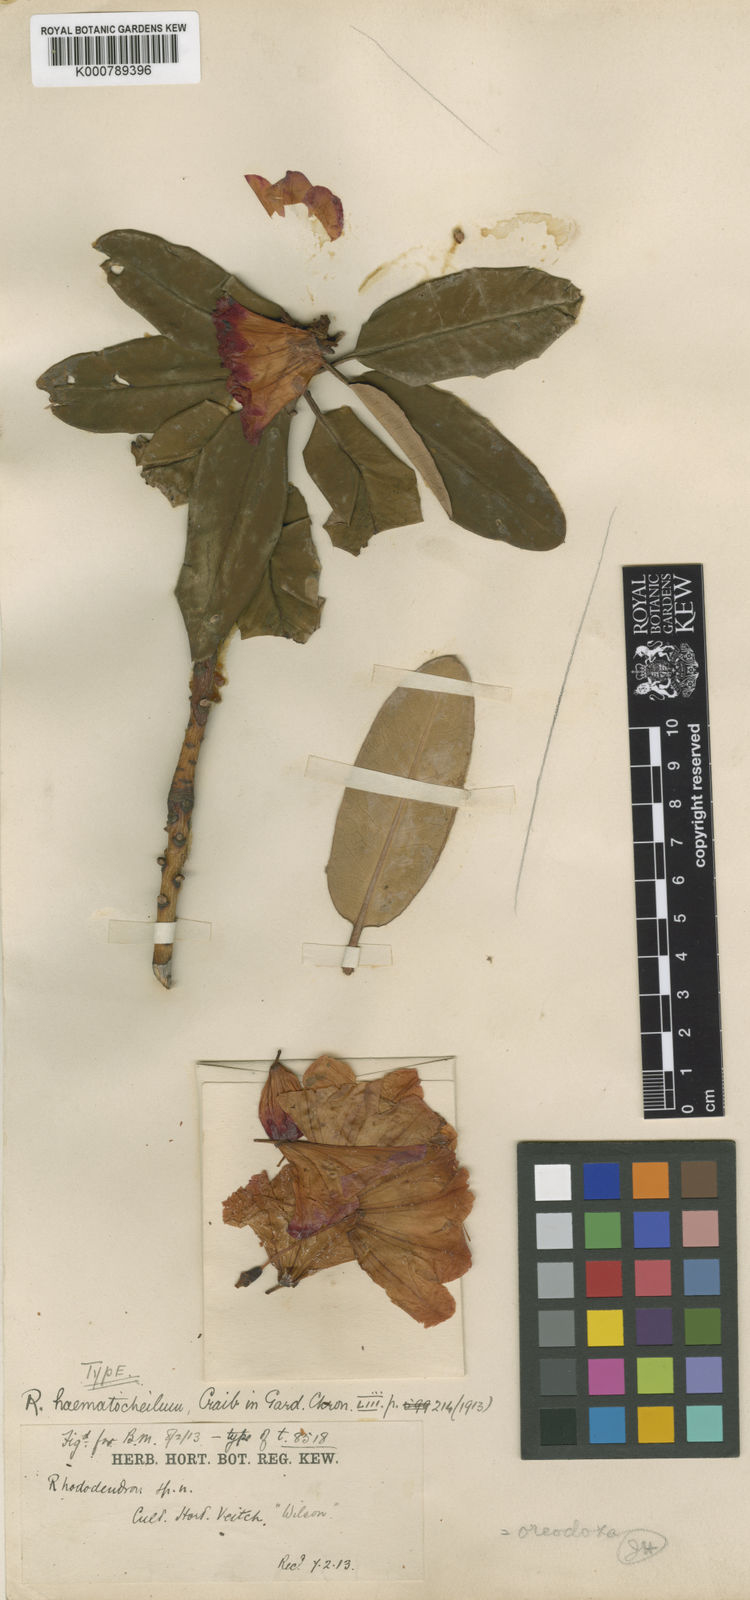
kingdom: Plantae
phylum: Tracheophyta
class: Magnoliopsida
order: Ericales
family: Ericaceae
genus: Rhododendron
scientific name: Rhododendron oreodoxa
